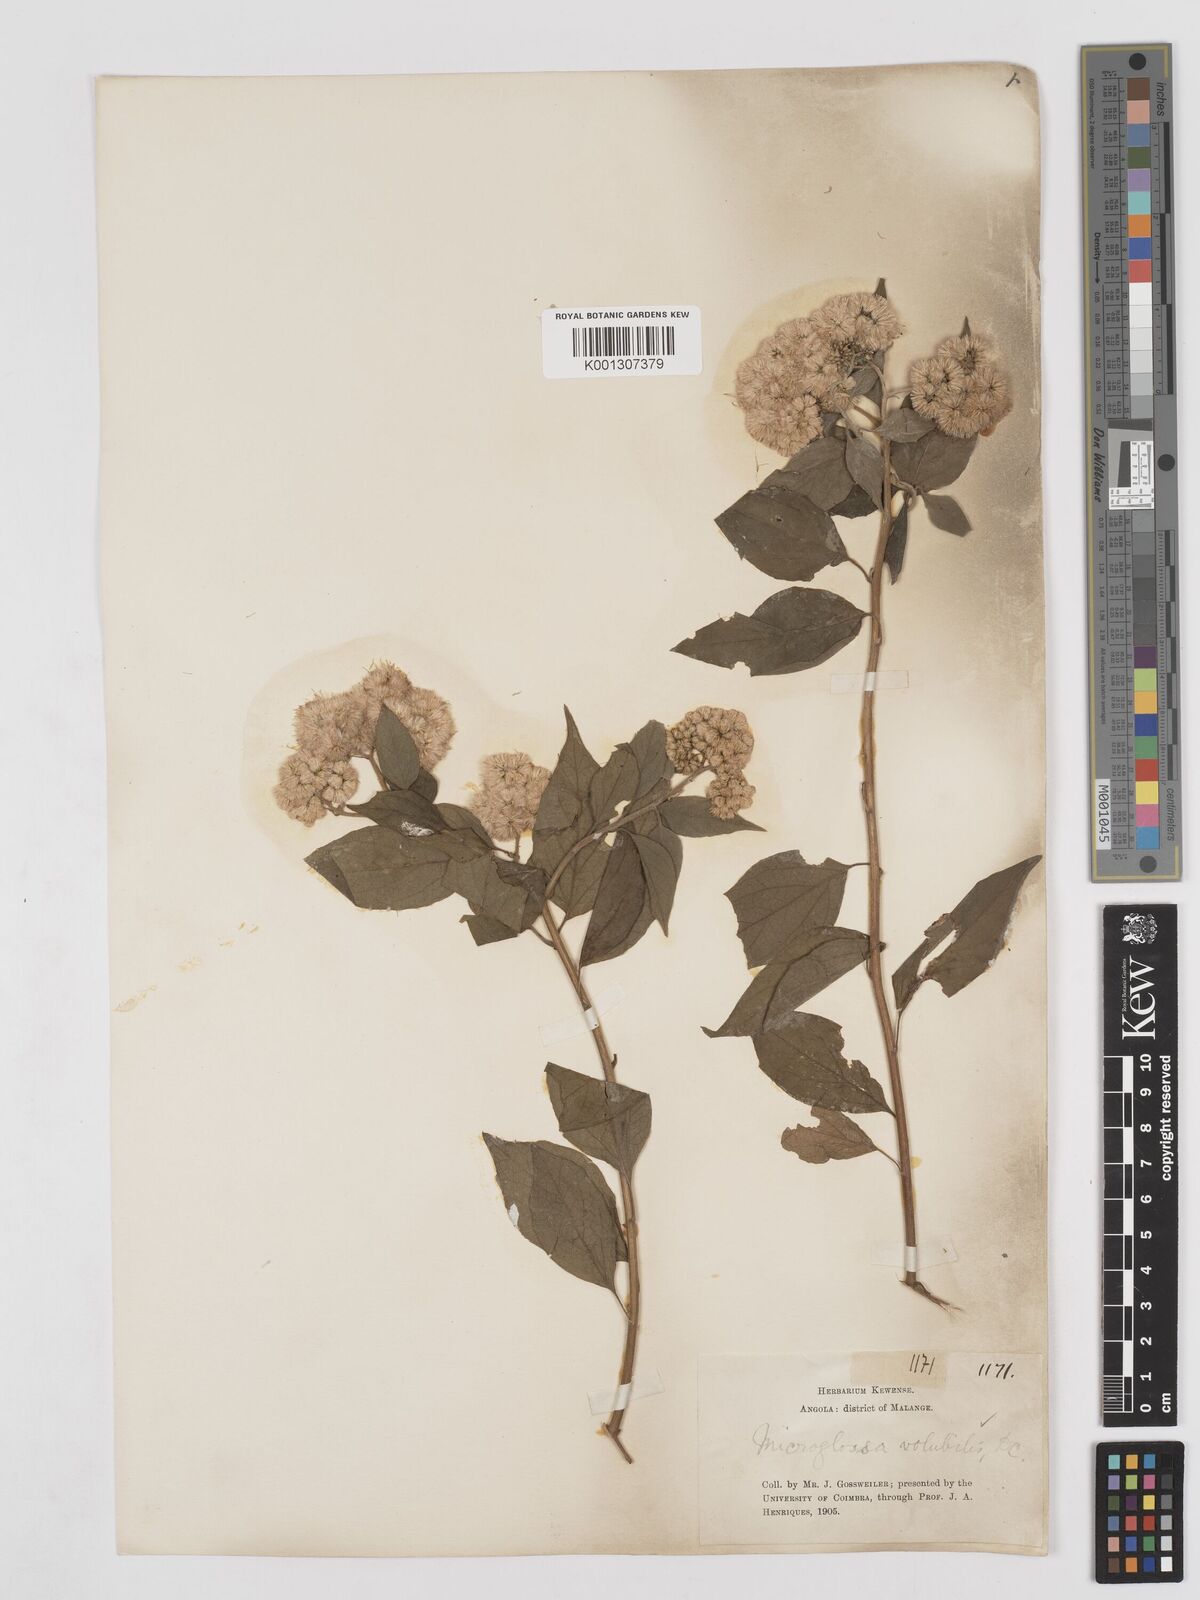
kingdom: Plantae
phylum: Tracheophyta
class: Magnoliopsida
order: Asterales
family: Asteraceae
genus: Microglossa
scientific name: Microglossa pyrifolia
